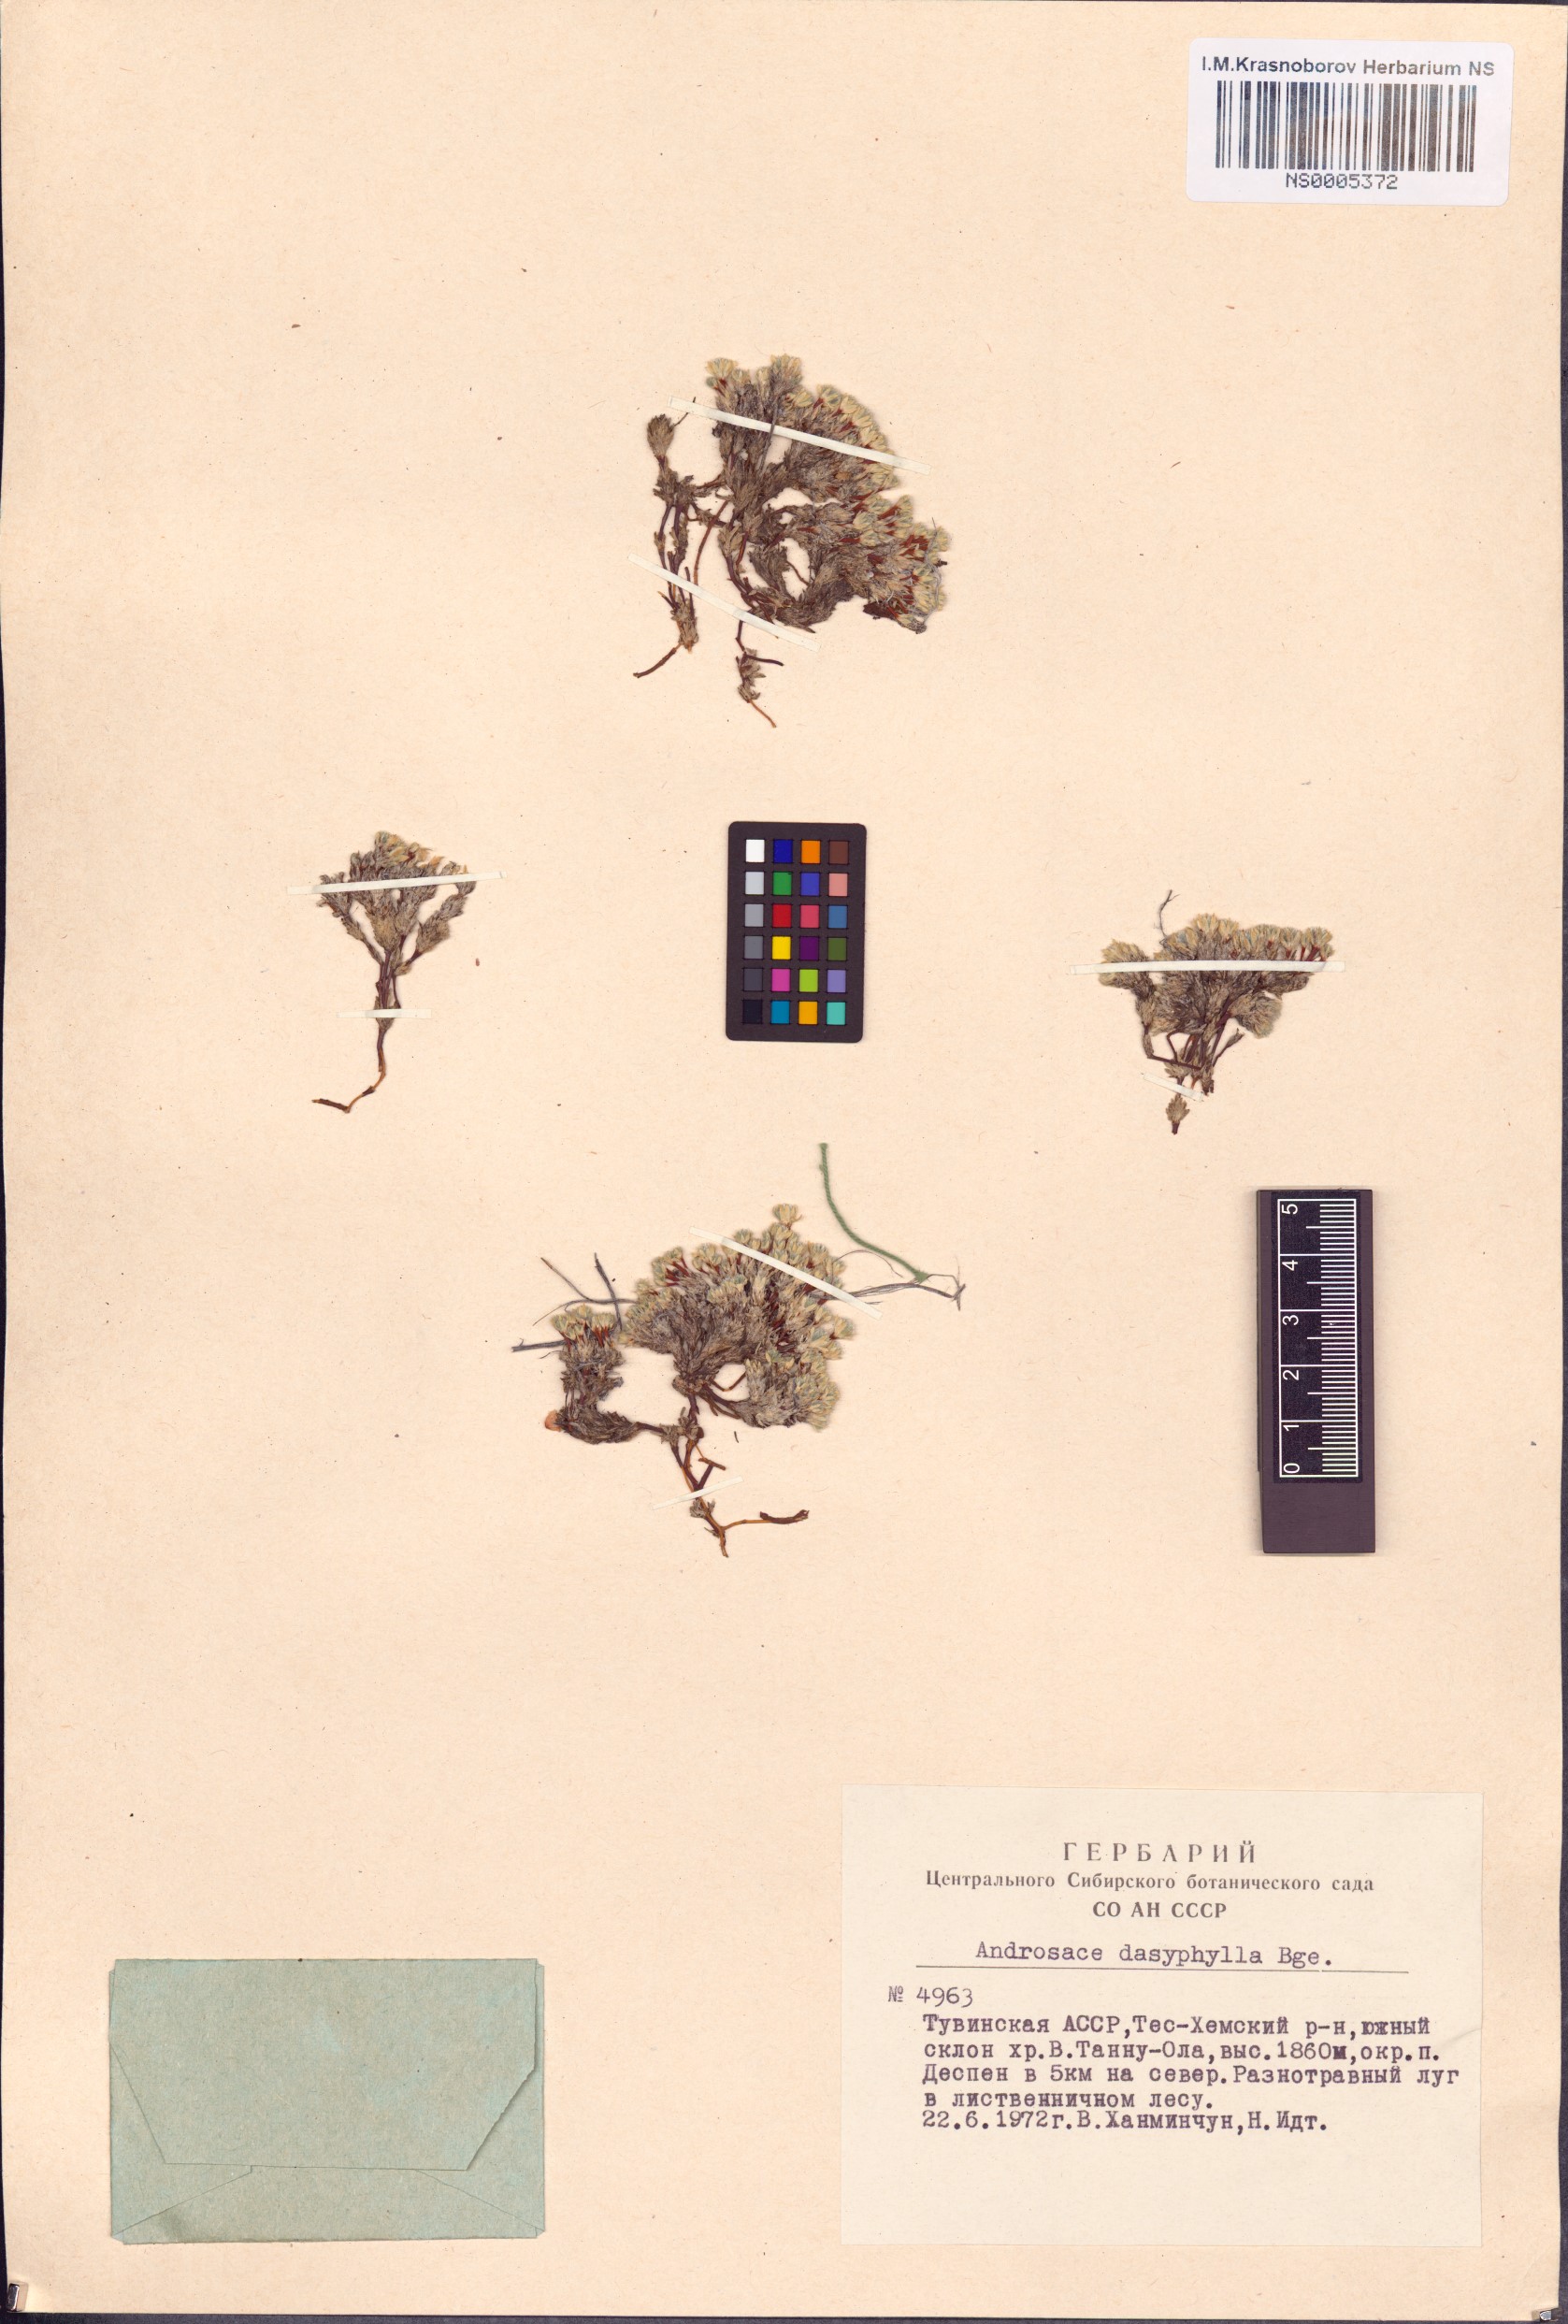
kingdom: Plantae
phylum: Tracheophyta
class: Magnoliopsida
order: Ericales
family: Primulaceae
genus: Androsace
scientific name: Androsace dasyphylla
